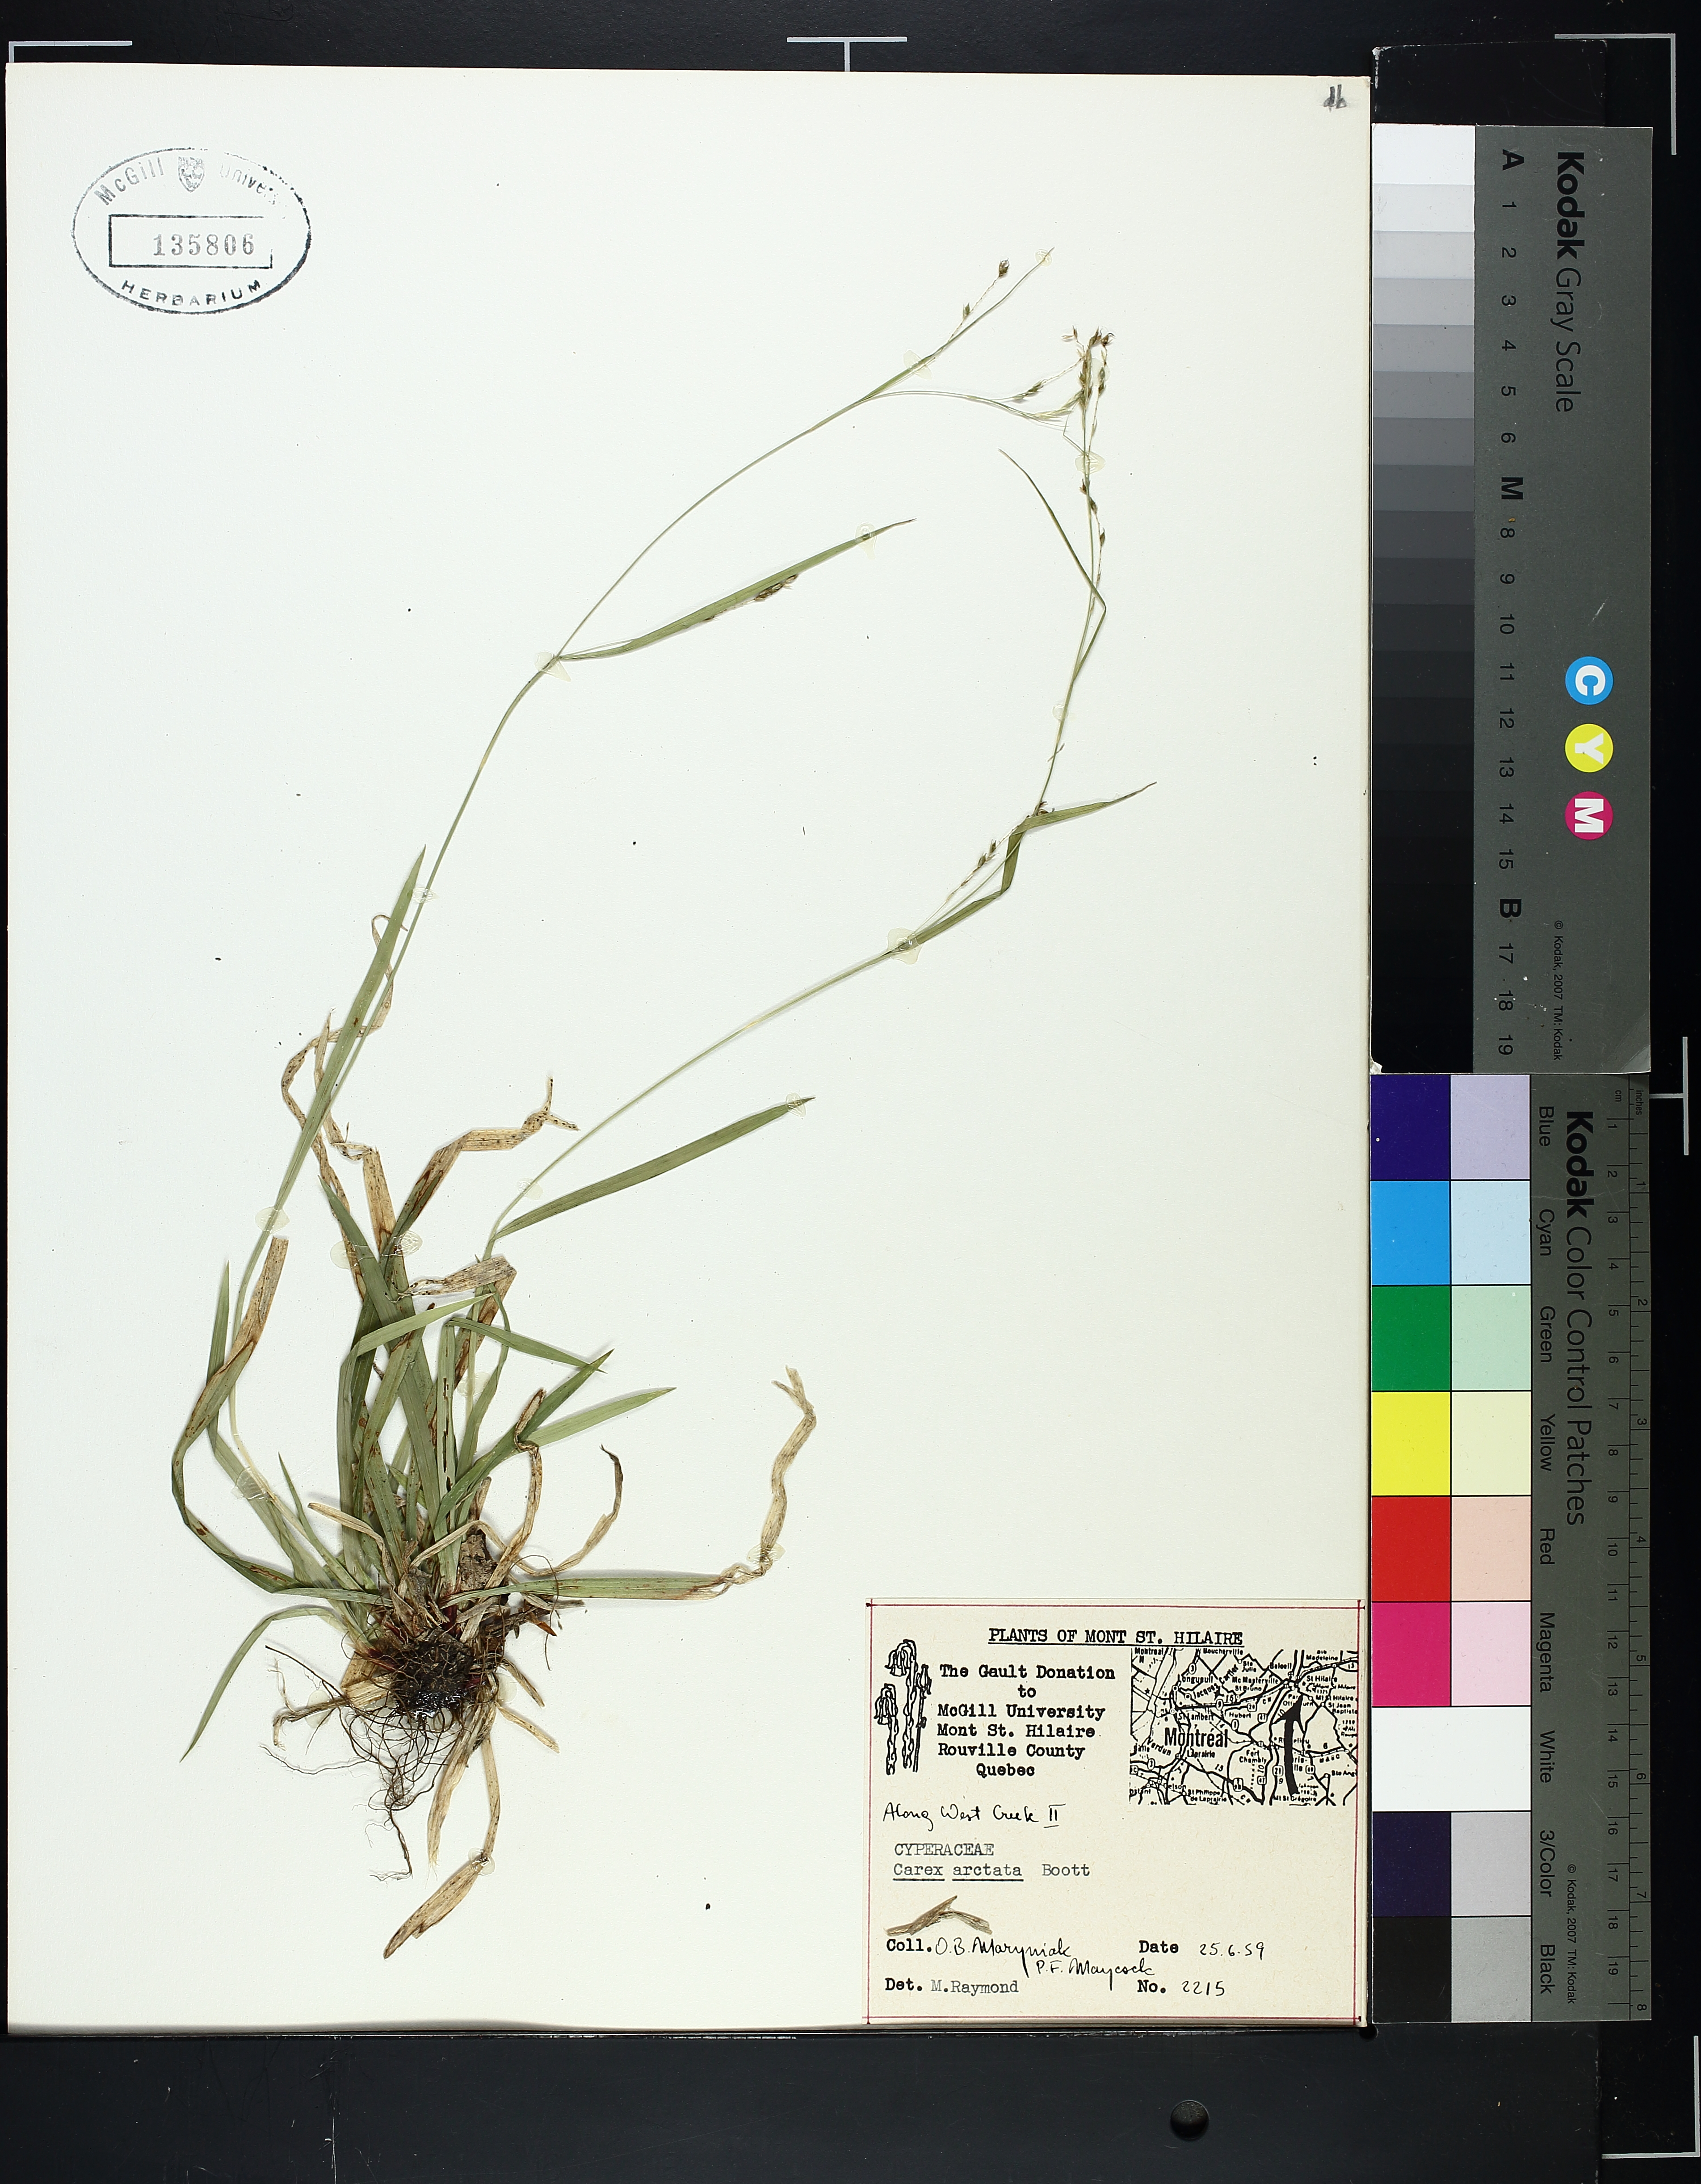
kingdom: Plantae
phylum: Tracheophyta
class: Liliopsida
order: Poales
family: Cyperaceae
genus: Carex
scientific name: Carex arctata
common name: Black sedge
